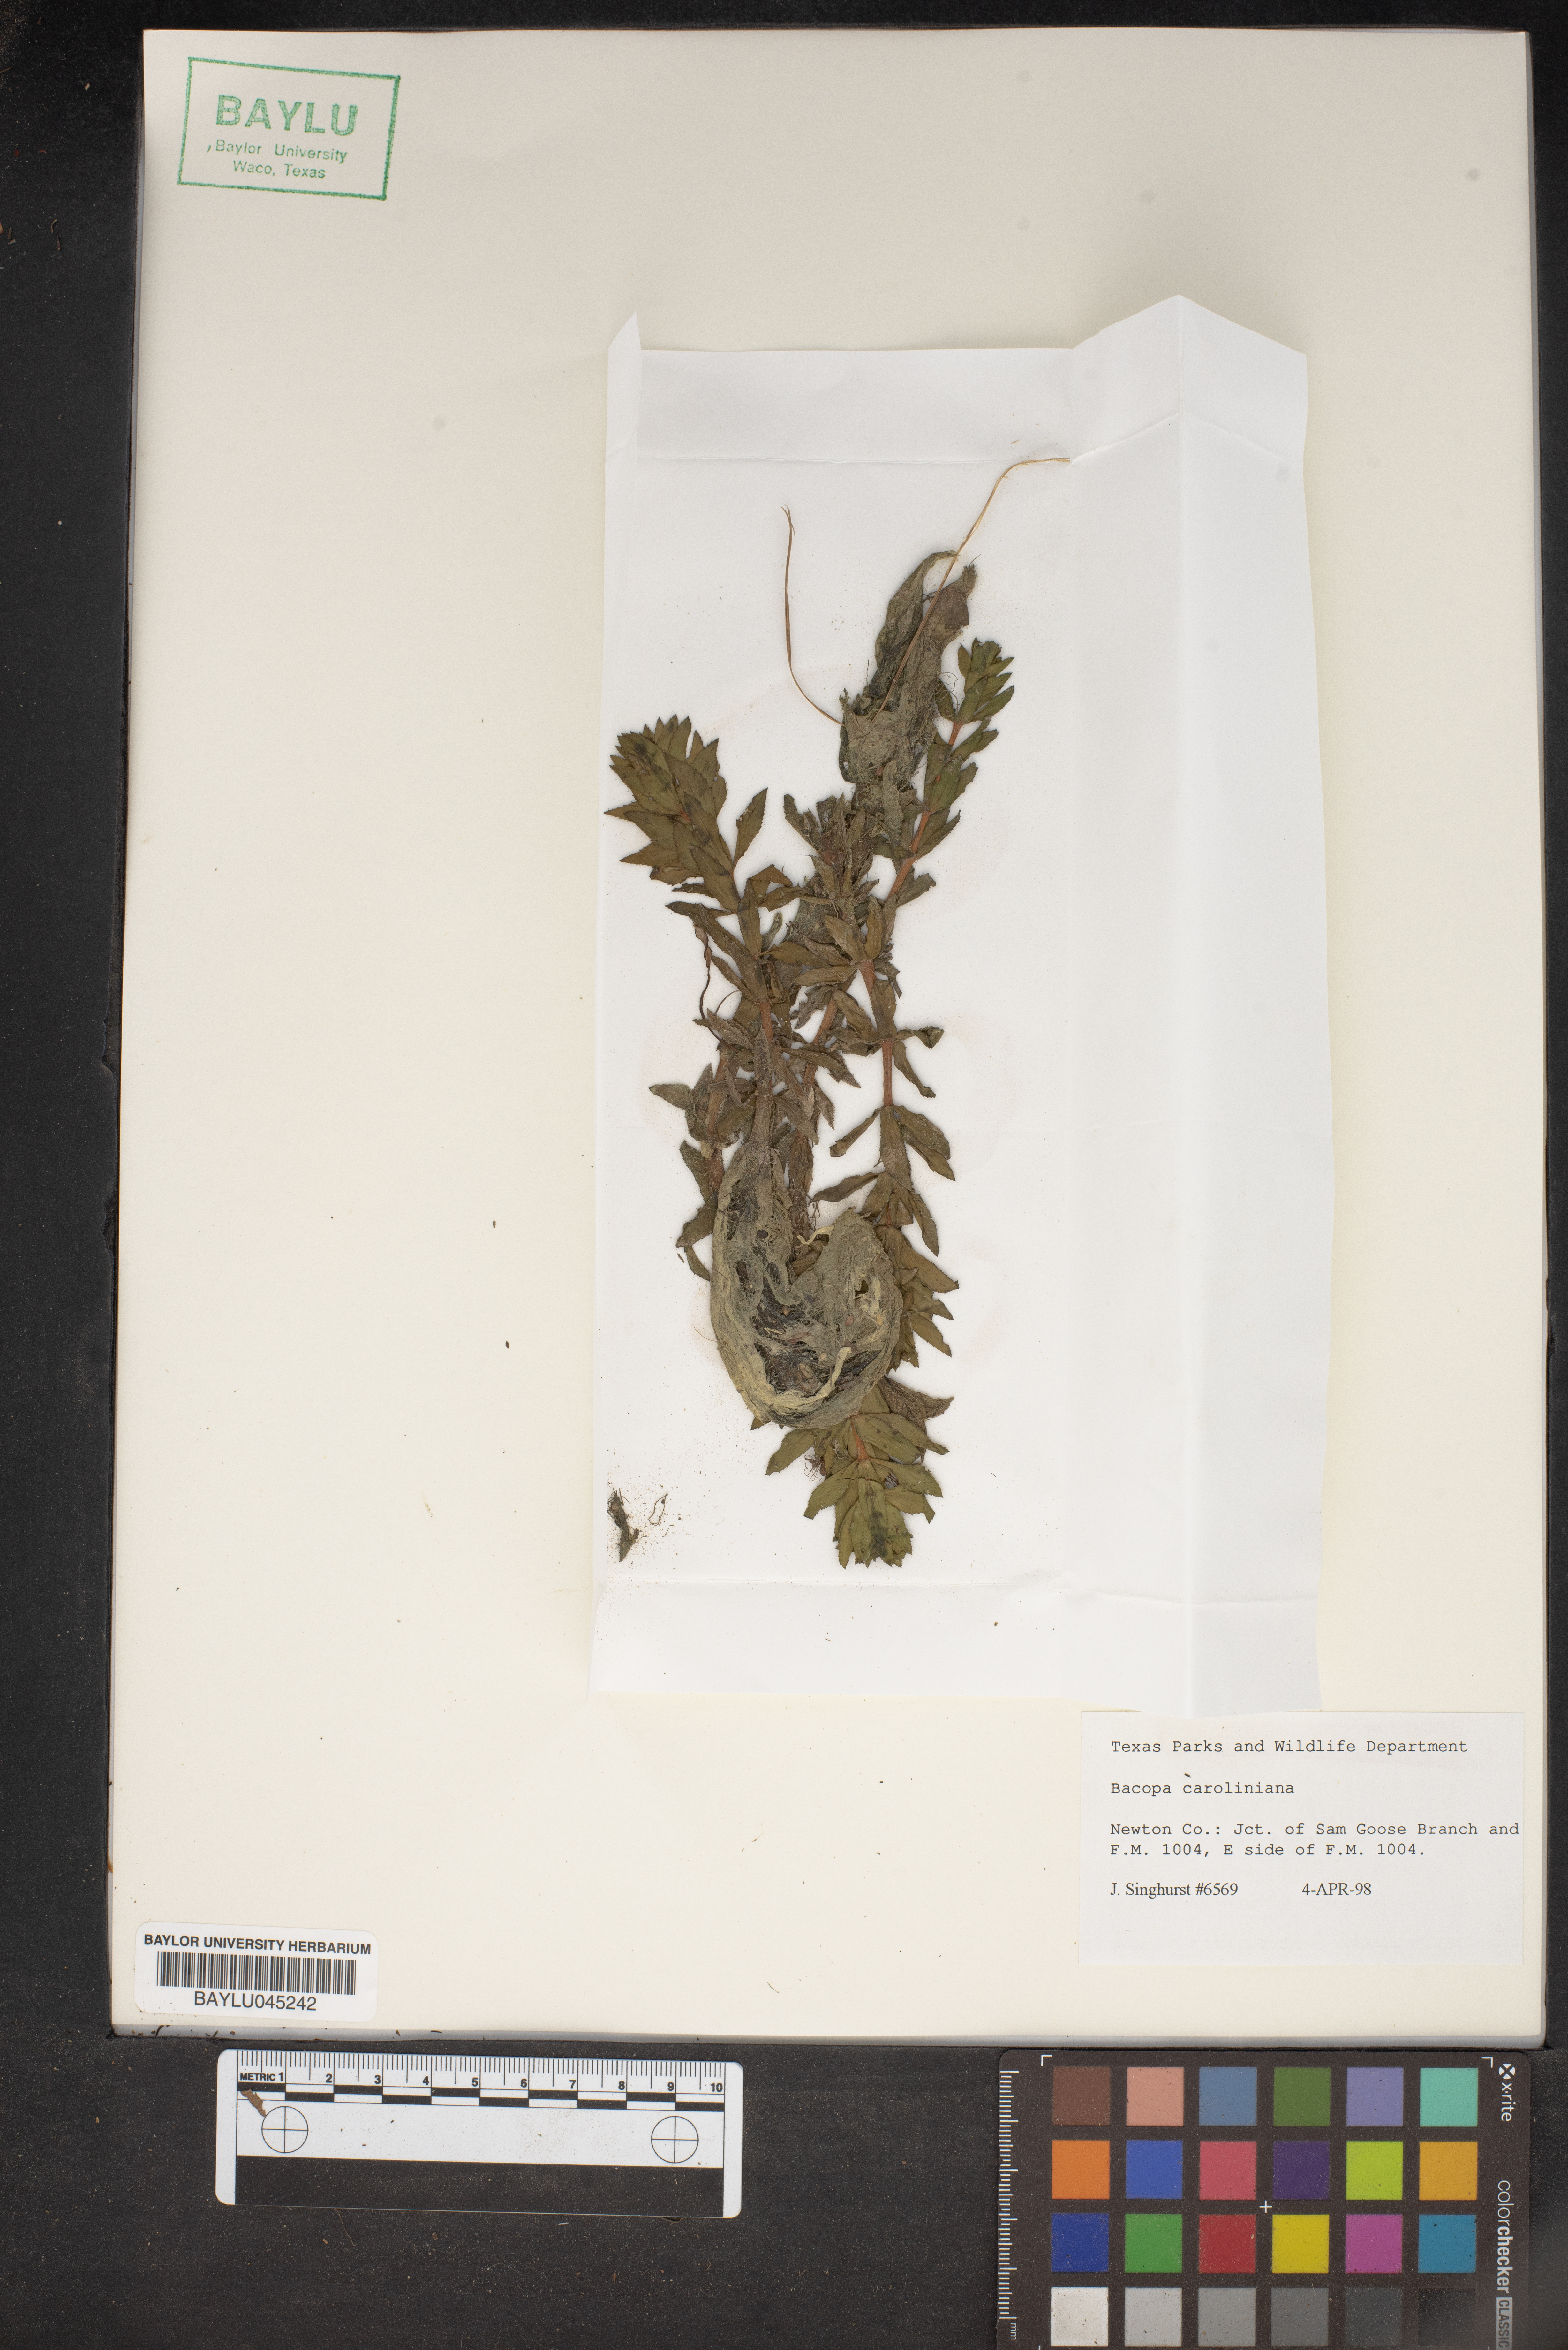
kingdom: Plantae
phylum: Tracheophyta
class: Magnoliopsida
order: Lamiales
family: Plantaginaceae
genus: Bacopa
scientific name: Bacopa caroliniana
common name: Lemon bacopa
